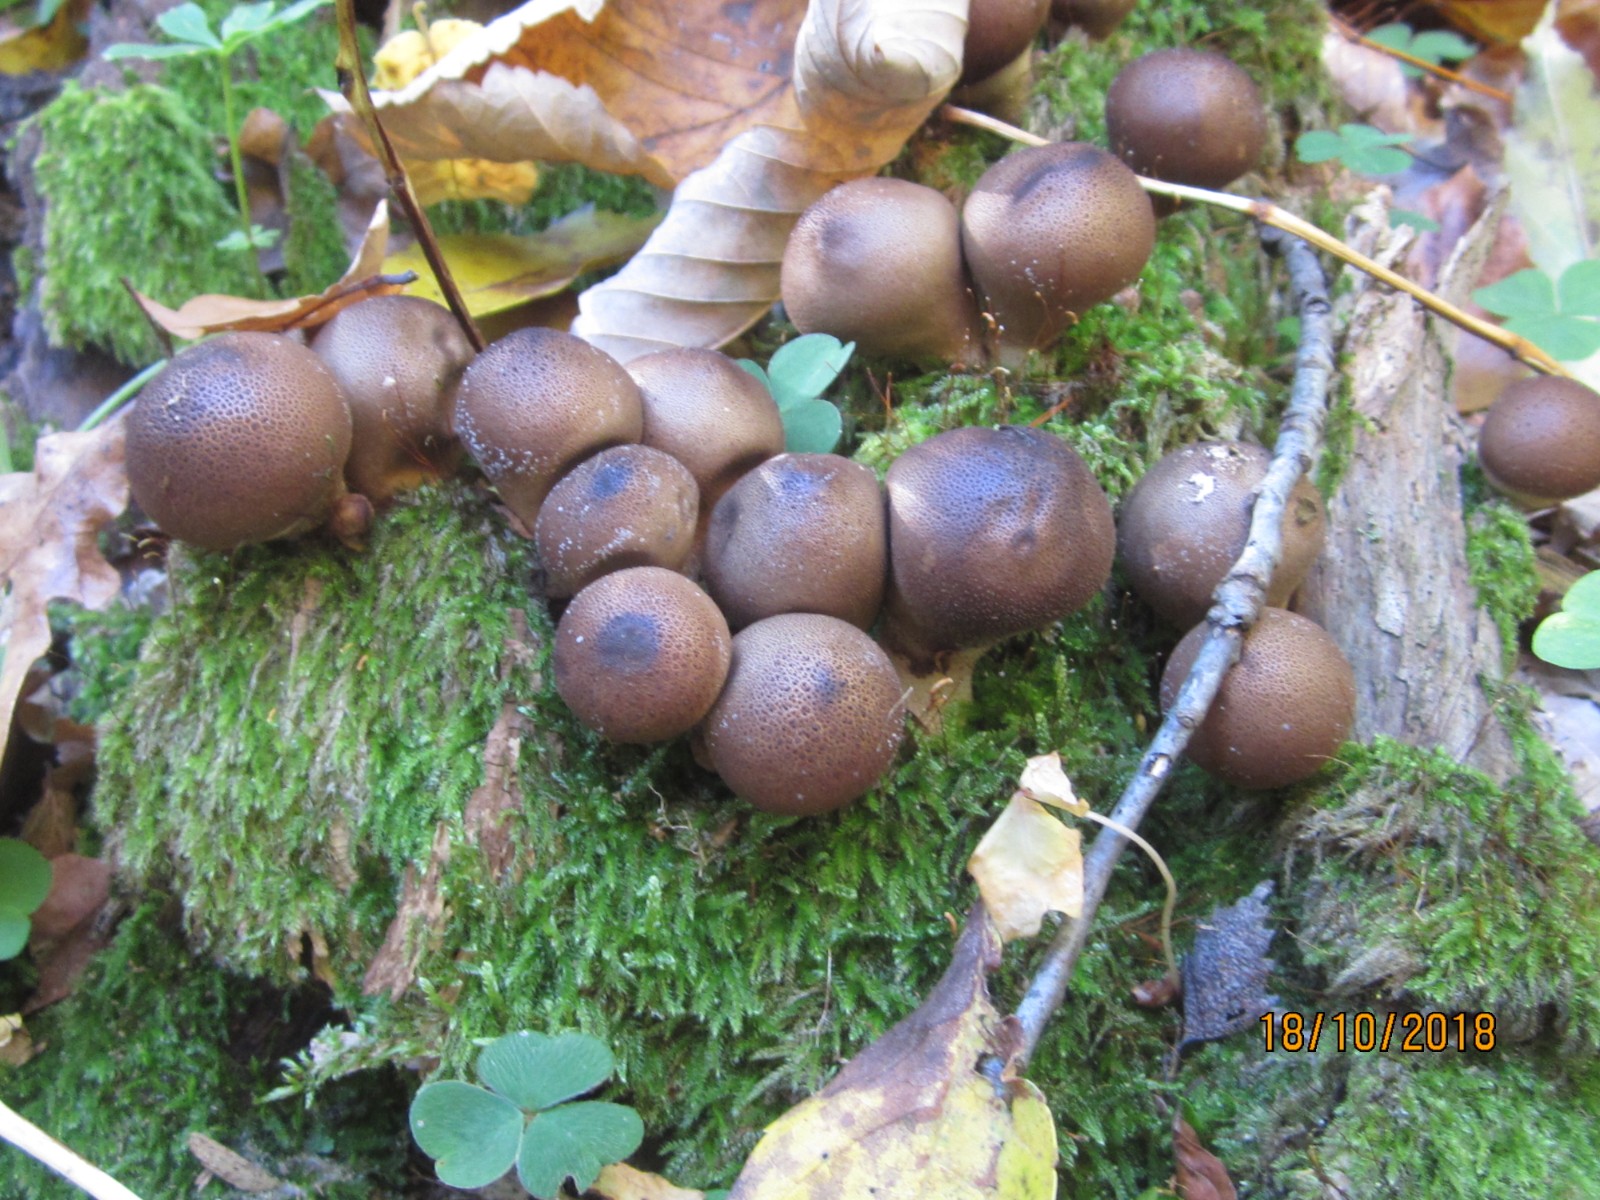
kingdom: Fungi
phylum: Basidiomycota
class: Agaricomycetes
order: Agaricales
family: Lycoperdaceae
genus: Apioperdon
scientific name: Apioperdon pyriforme
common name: pære-støvbold
